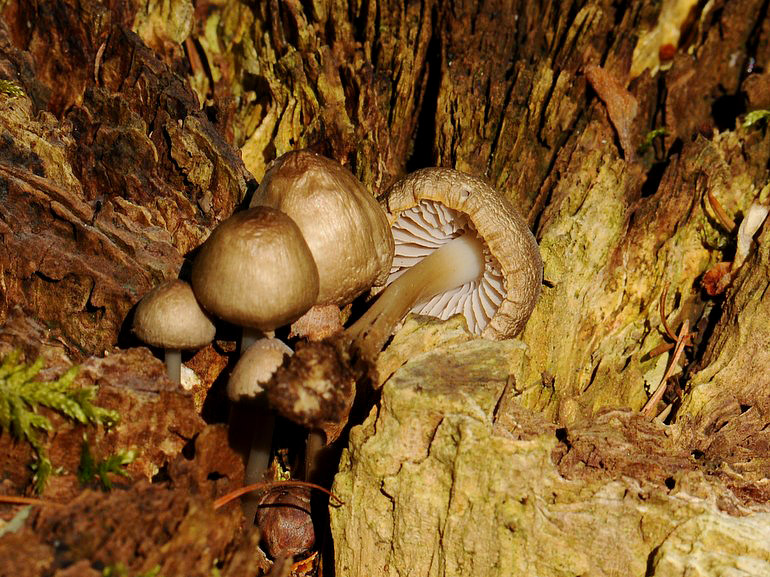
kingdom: Fungi
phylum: Basidiomycota
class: Agaricomycetes
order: Agaricales
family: Mycenaceae
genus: Mycena
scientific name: Mycena galericulata
